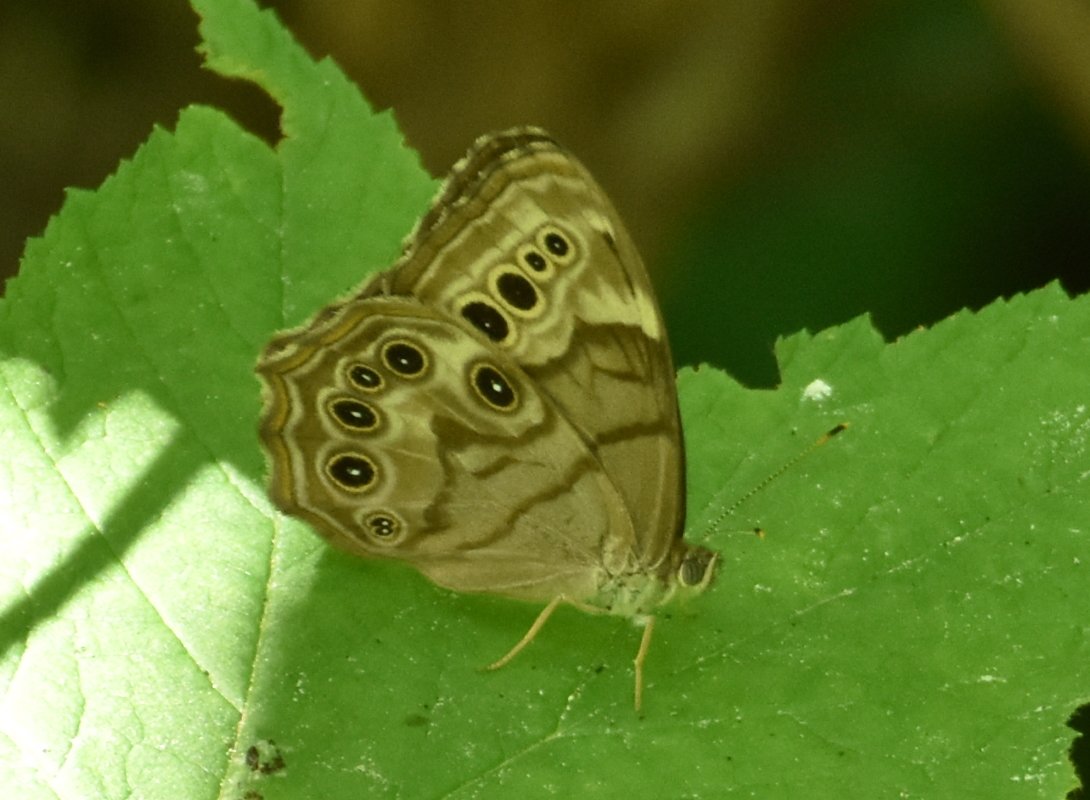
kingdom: Animalia
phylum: Arthropoda
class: Insecta
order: Lepidoptera
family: Nymphalidae
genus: Lethe
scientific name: Lethe anthedon
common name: Northern Pearly-Eye
